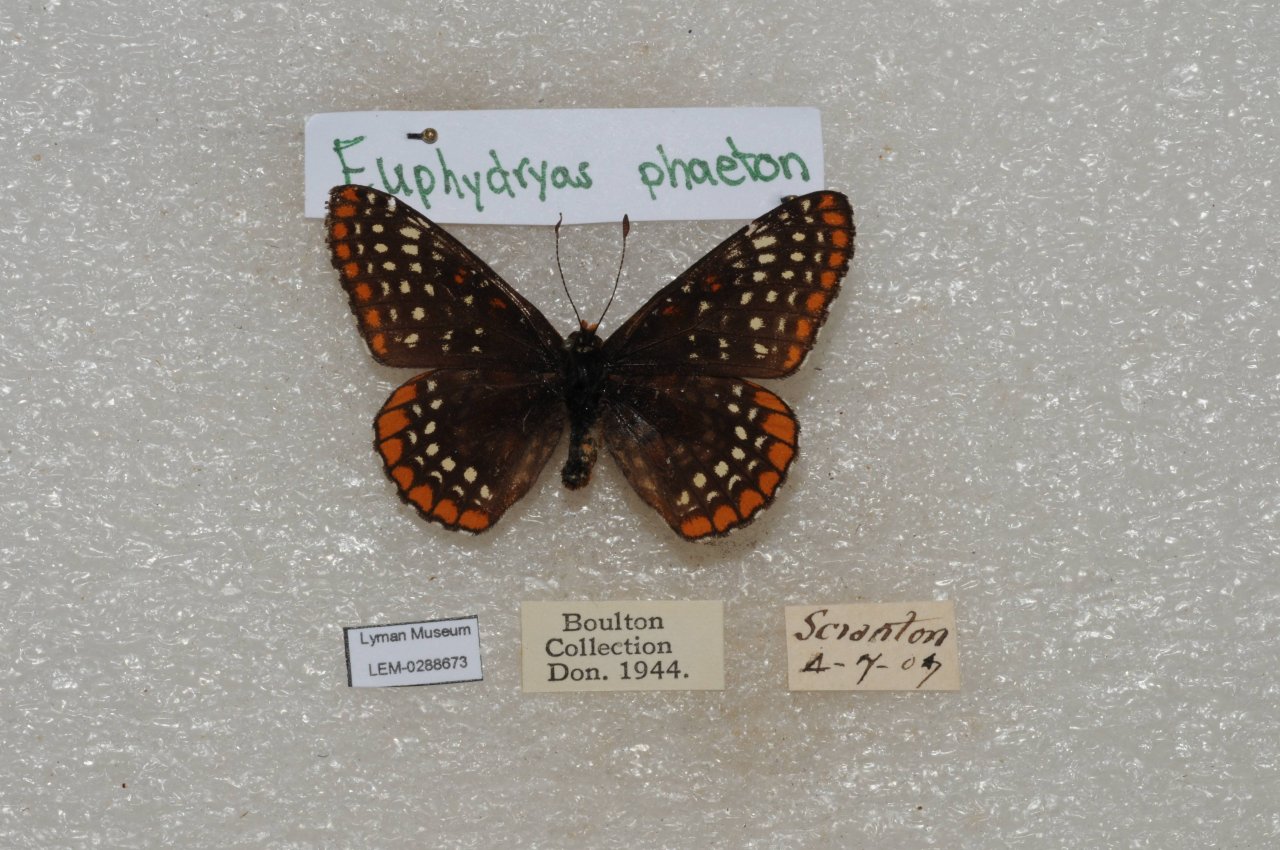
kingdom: Animalia
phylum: Arthropoda
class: Insecta
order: Lepidoptera
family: Nymphalidae
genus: Euphydryas
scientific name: Euphydryas phaeton
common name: Baltimore Checkerspot
